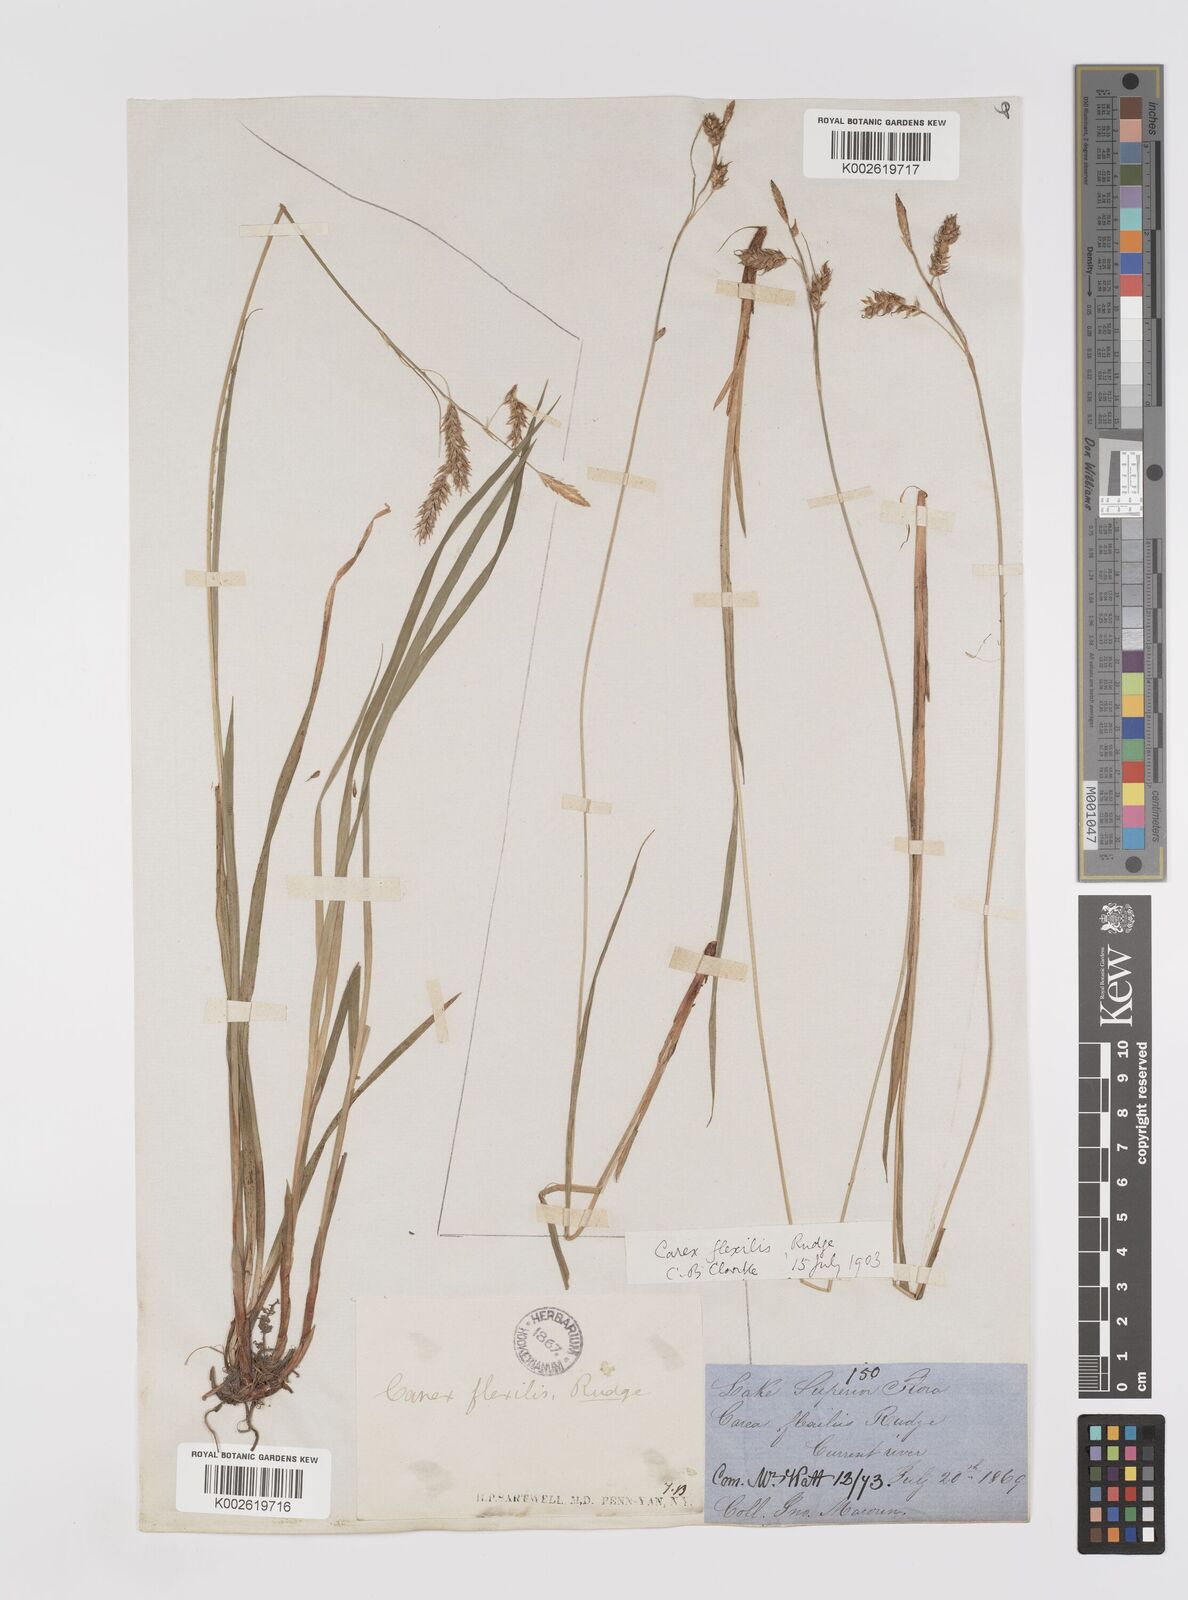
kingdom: Plantae
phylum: Tracheophyta
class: Liliopsida
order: Poales
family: Cyperaceae
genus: Carex
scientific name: Carex castanea
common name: Chestnut sedge
